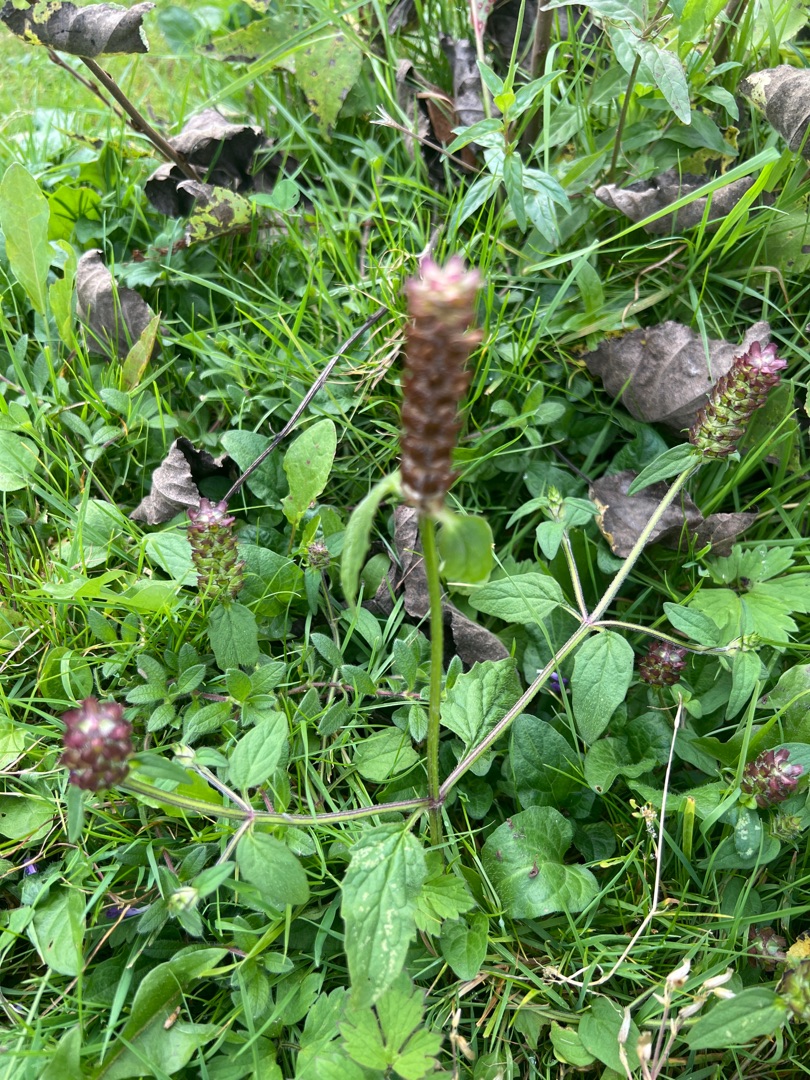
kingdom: Plantae
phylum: Tracheophyta
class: Magnoliopsida
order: Lamiales
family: Lamiaceae
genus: Prunella
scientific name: Prunella vulgaris
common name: Almindelig brunelle
